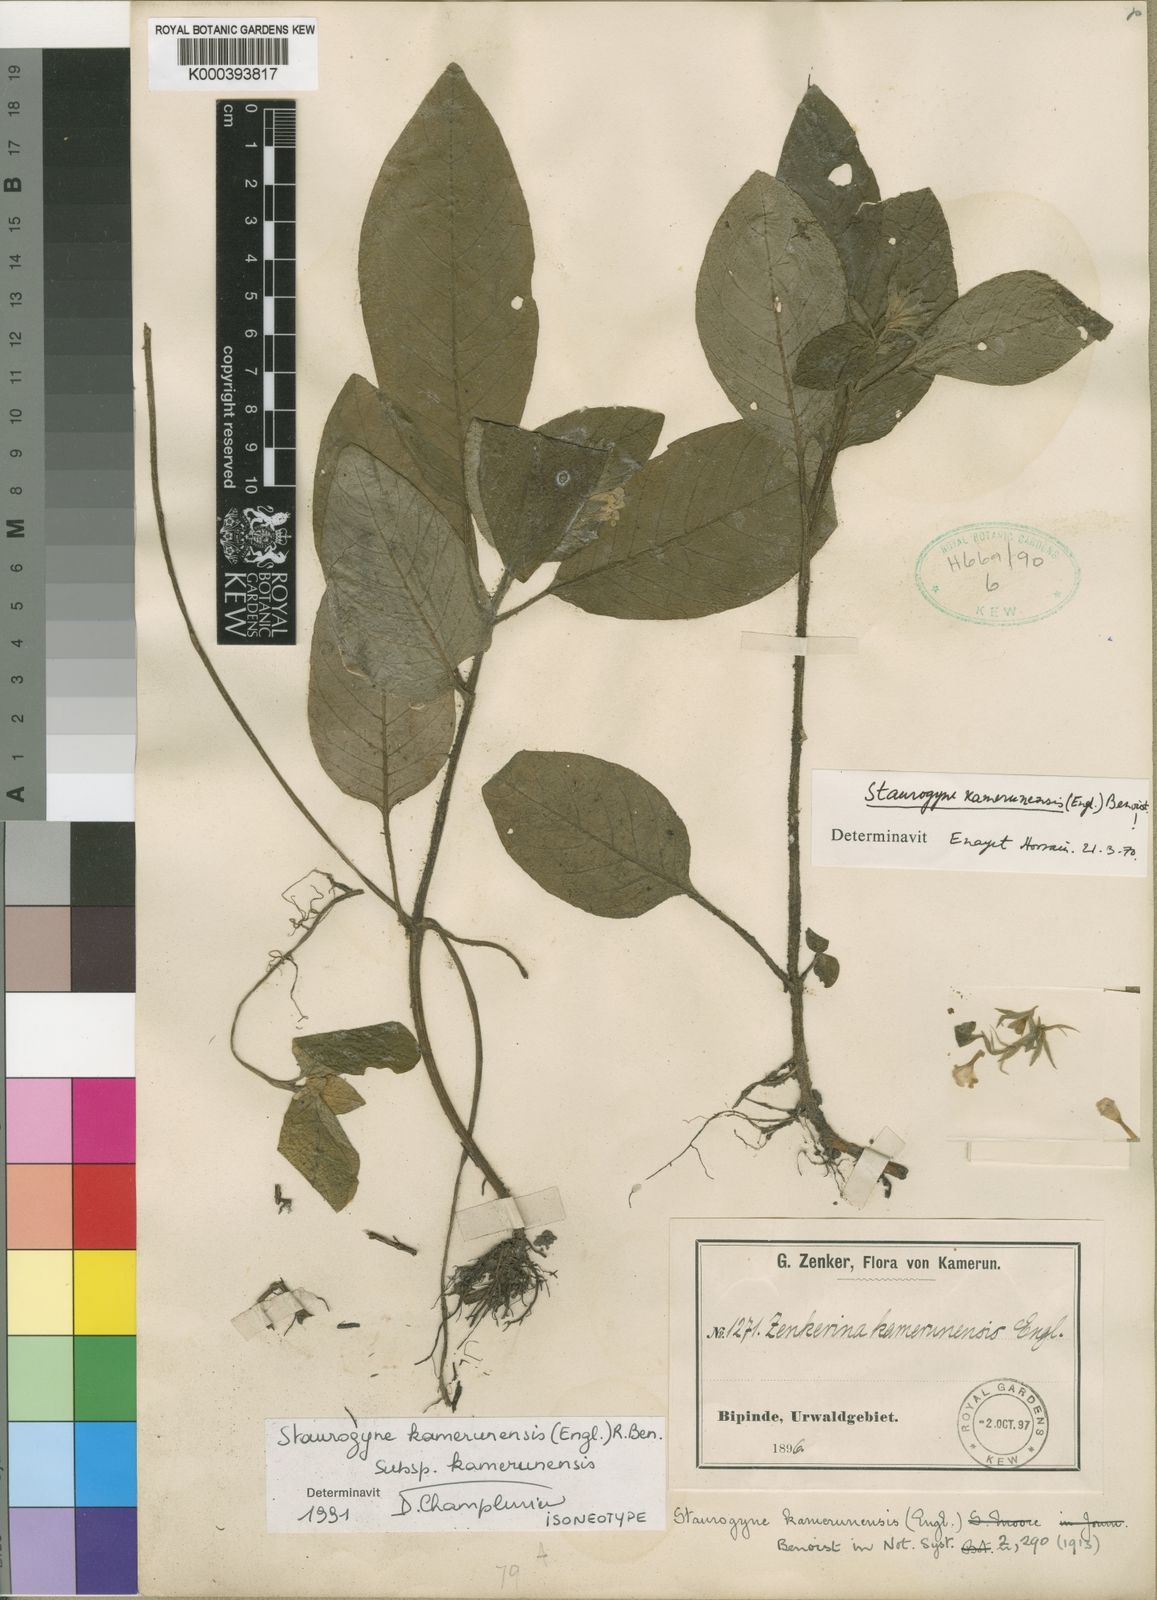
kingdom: Plantae
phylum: Tracheophyta
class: Magnoliopsida
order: Lamiales
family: Acanthaceae
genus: Staurogyne
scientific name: Staurogyne kamerunensis
